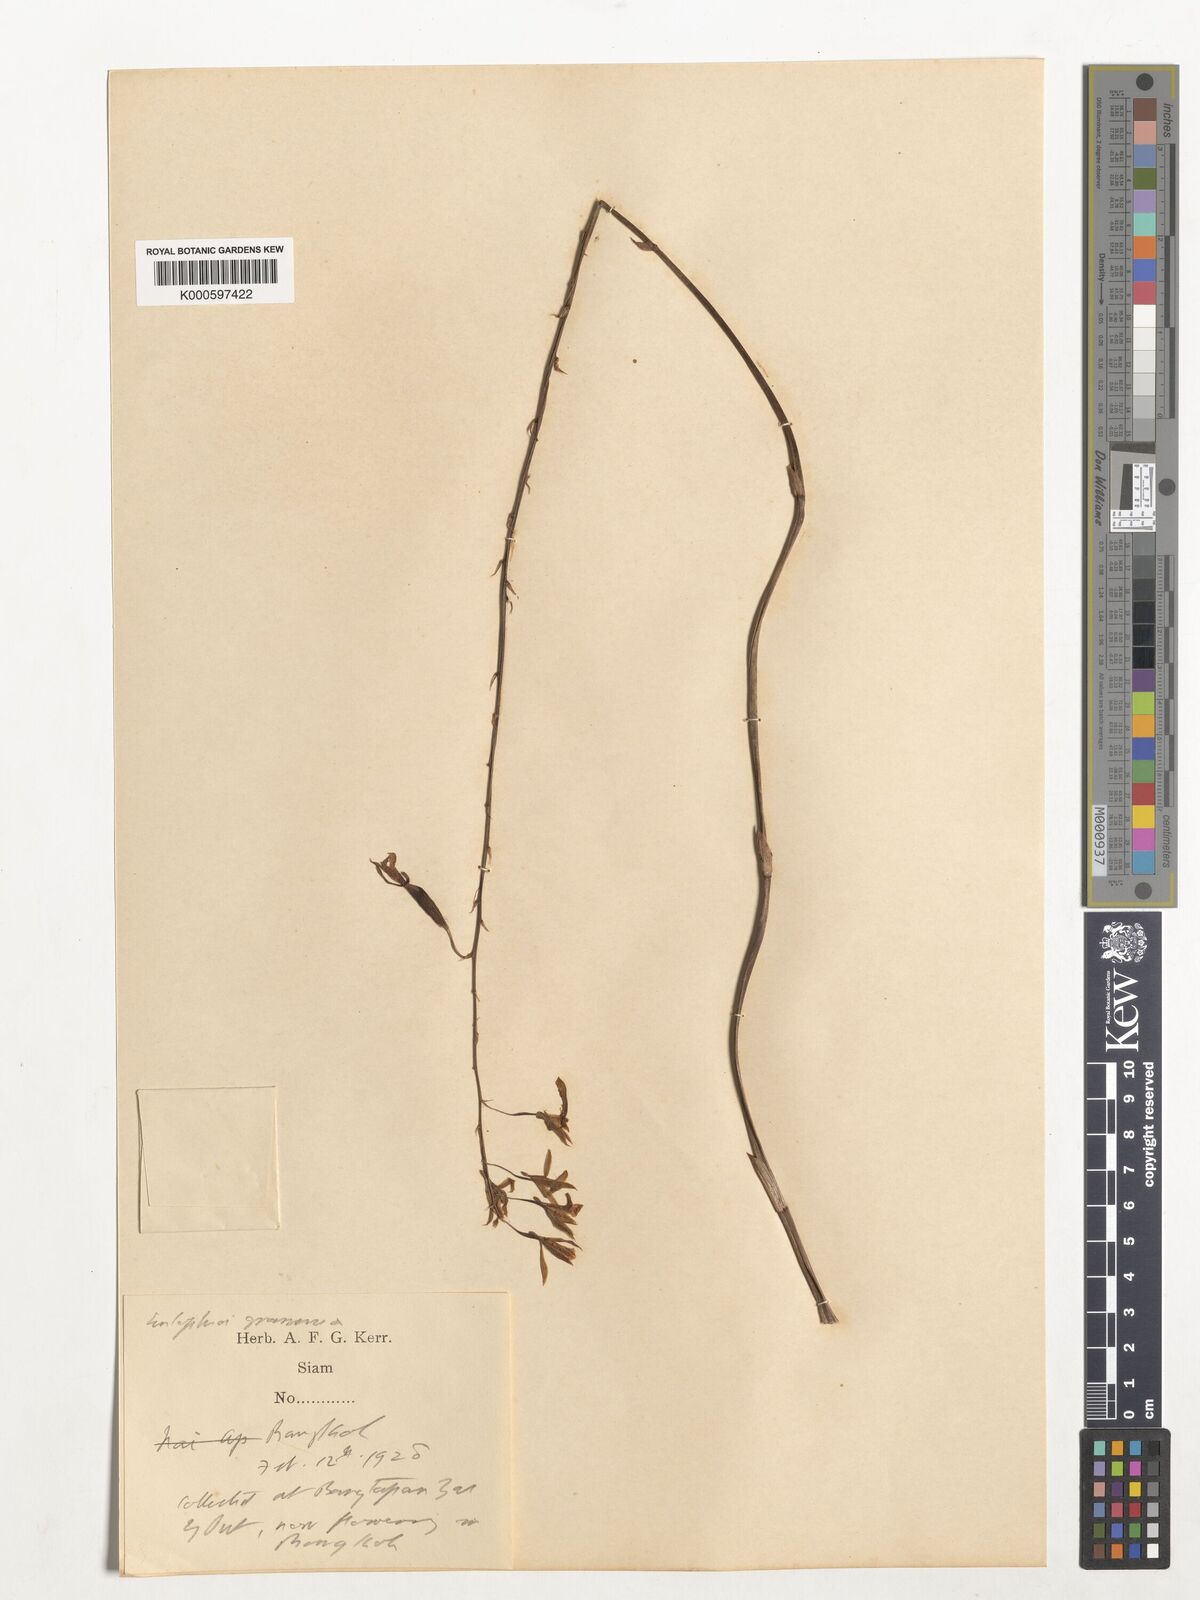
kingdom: Plantae
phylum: Tracheophyta
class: Liliopsida
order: Asparagales
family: Orchidaceae
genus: Eulophia
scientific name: Eulophia graminea
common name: Orchid
